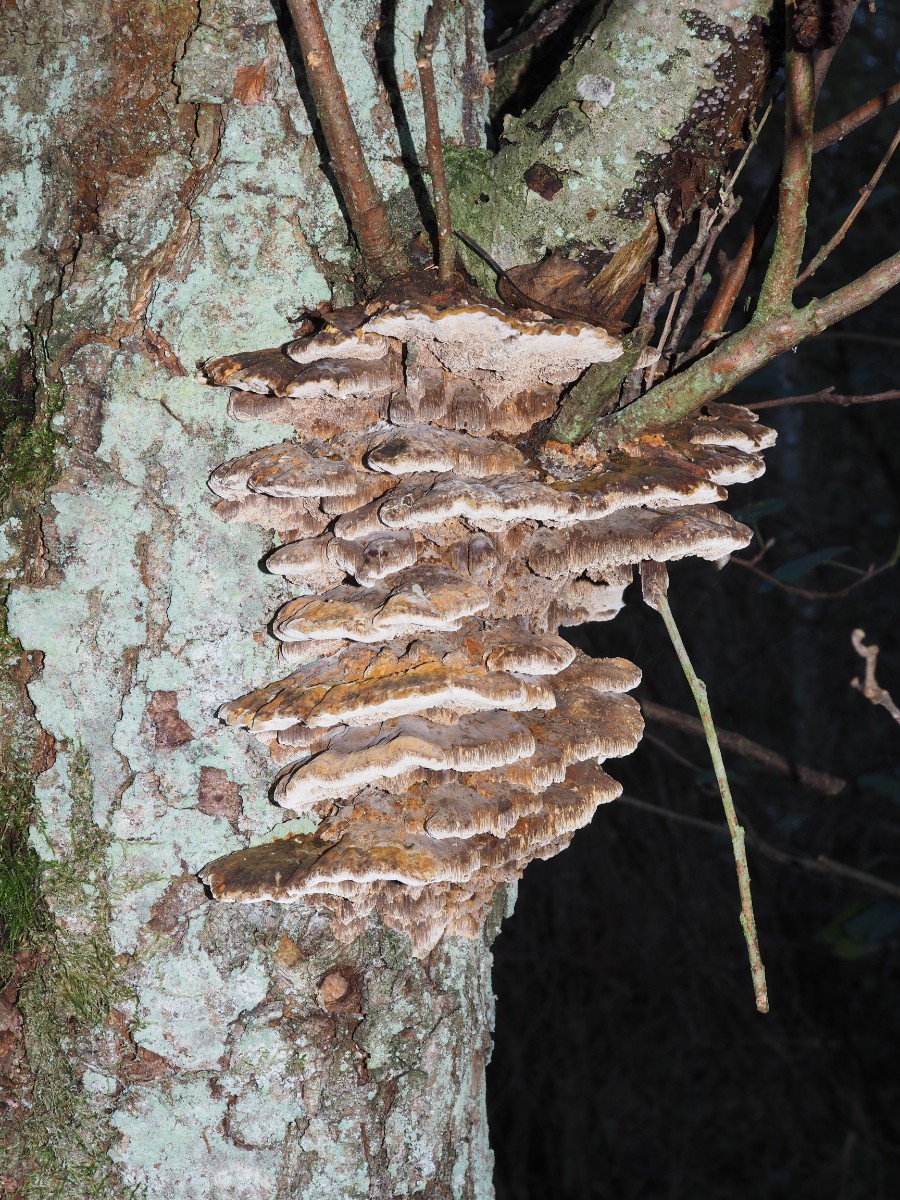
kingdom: Fungi
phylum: Basidiomycota
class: Agaricomycetes
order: Hymenochaetales
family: Hymenochaetaceae
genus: Xanthoporia
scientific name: Xanthoporia radiata
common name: elle-spejlporesvamp
